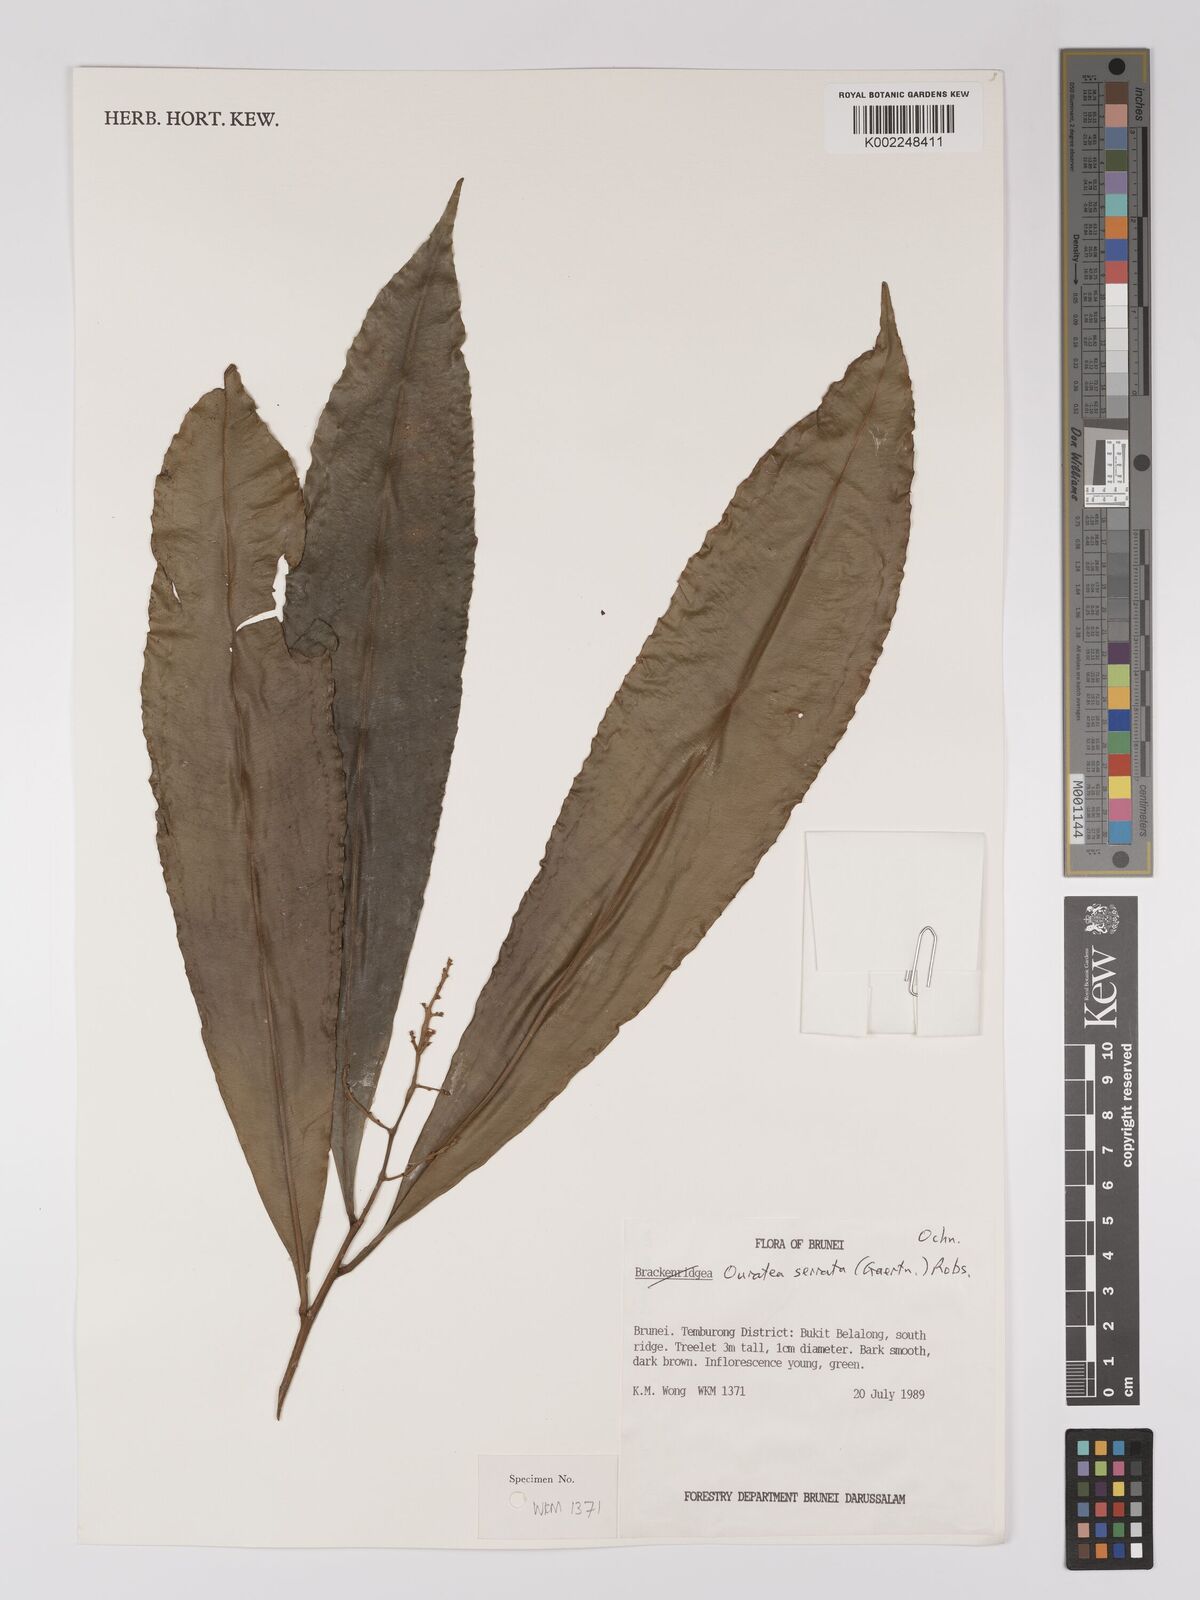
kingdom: Plantae
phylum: Tracheophyta
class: Magnoliopsida
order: Malpighiales
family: Ochnaceae
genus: Gomphia
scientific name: Gomphia serrata
